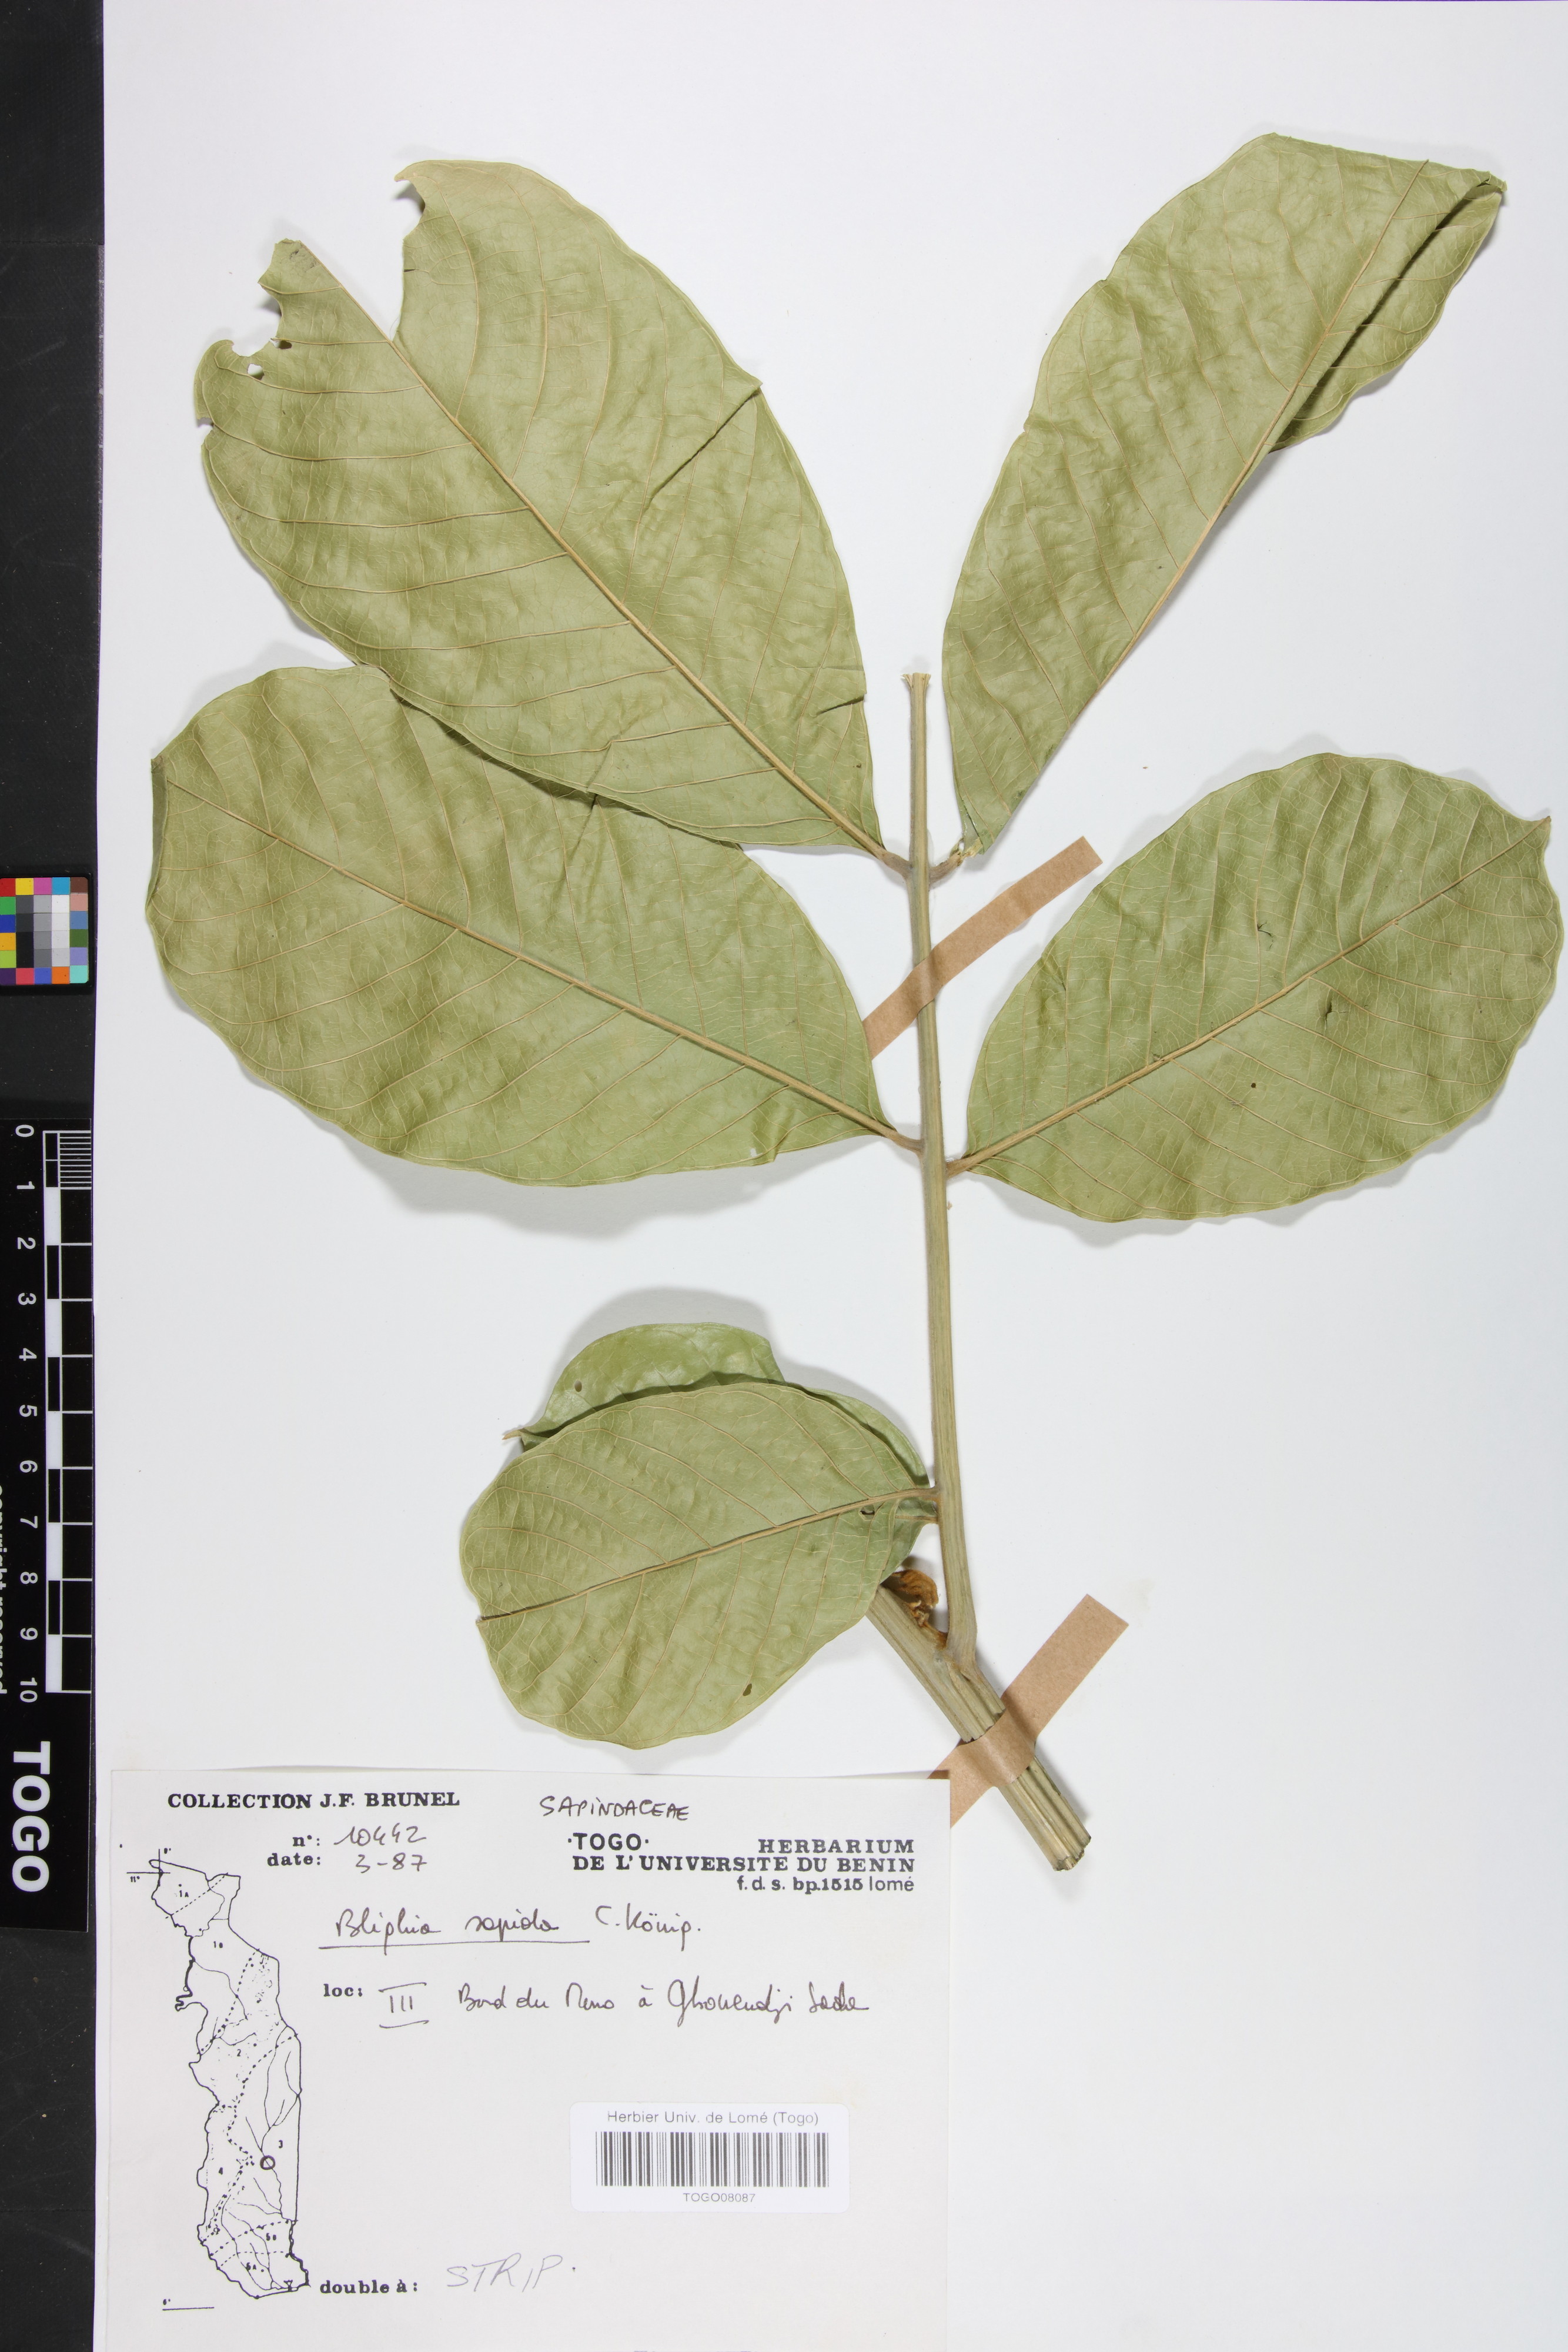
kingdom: Plantae
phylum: Tracheophyta
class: Magnoliopsida
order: Sapindales
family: Sapindaceae
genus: Blighia
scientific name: Blighia sapida
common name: Akee
